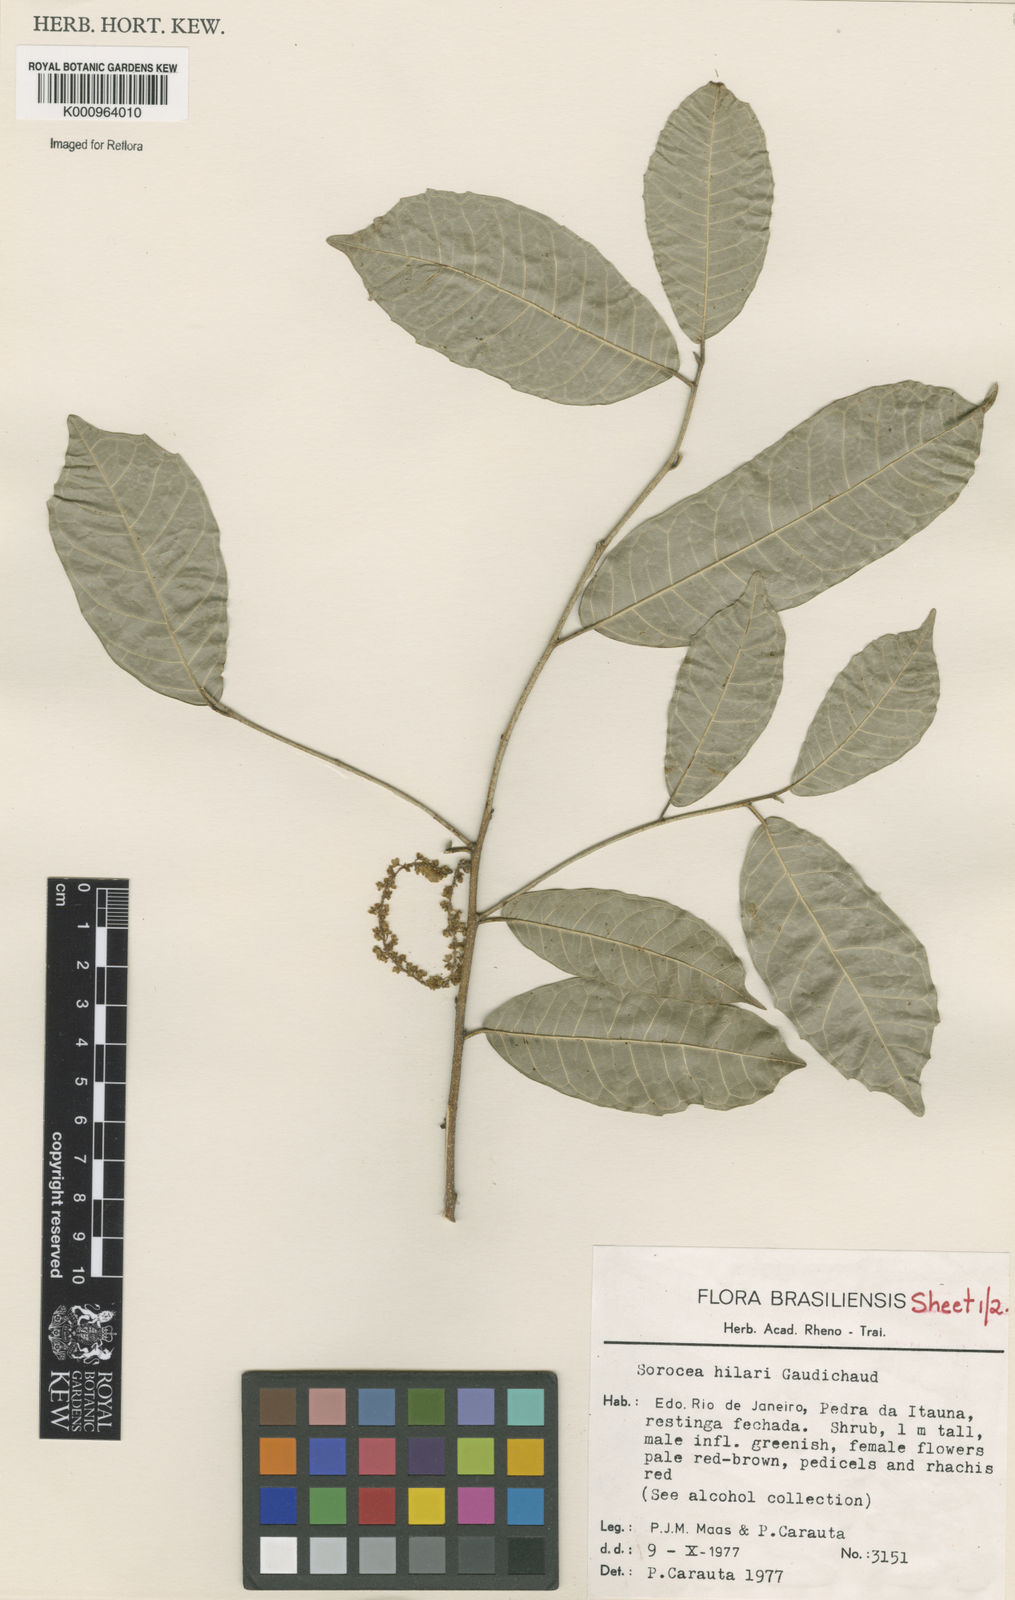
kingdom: Plantae
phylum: Tracheophyta
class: Magnoliopsida
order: Rosales
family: Moraceae
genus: Sorocea
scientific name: Sorocea hilarii
